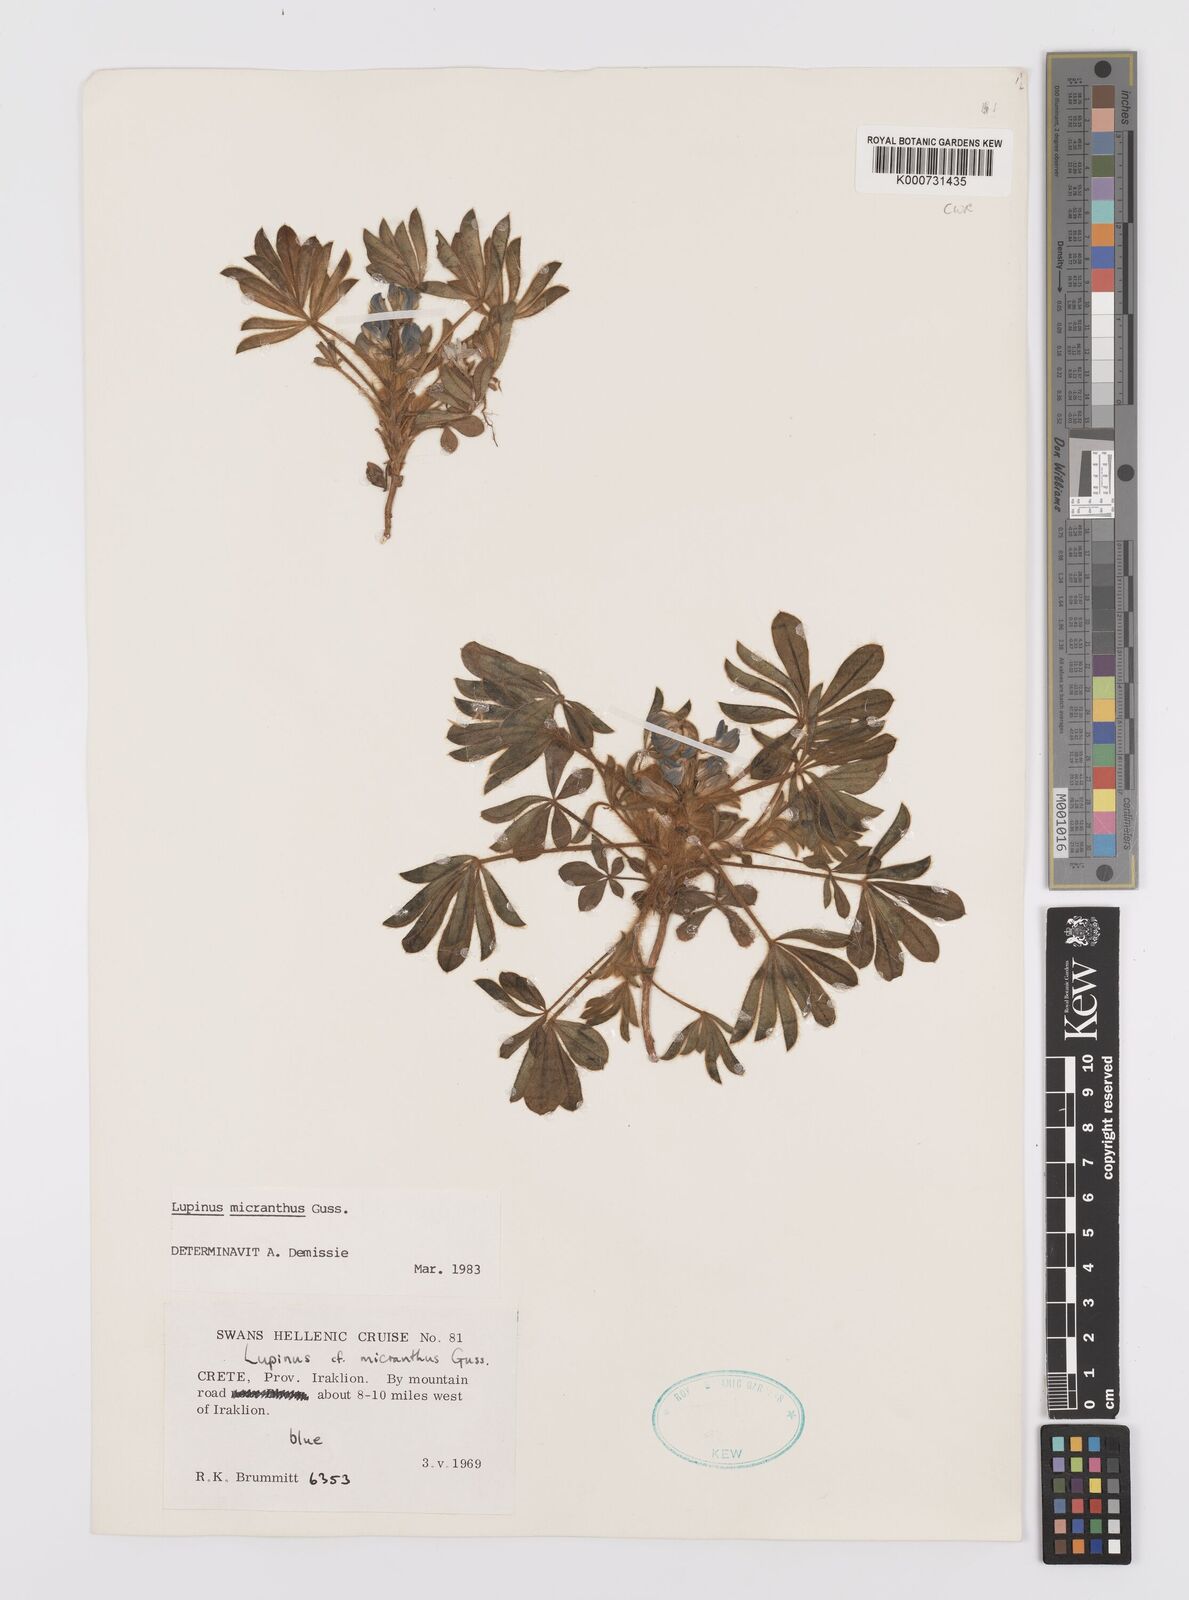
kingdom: Plantae
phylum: Tracheophyta
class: Magnoliopsida
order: Fabales
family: Fabaceae
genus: Lupinus
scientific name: Lupinus gussoneanus
